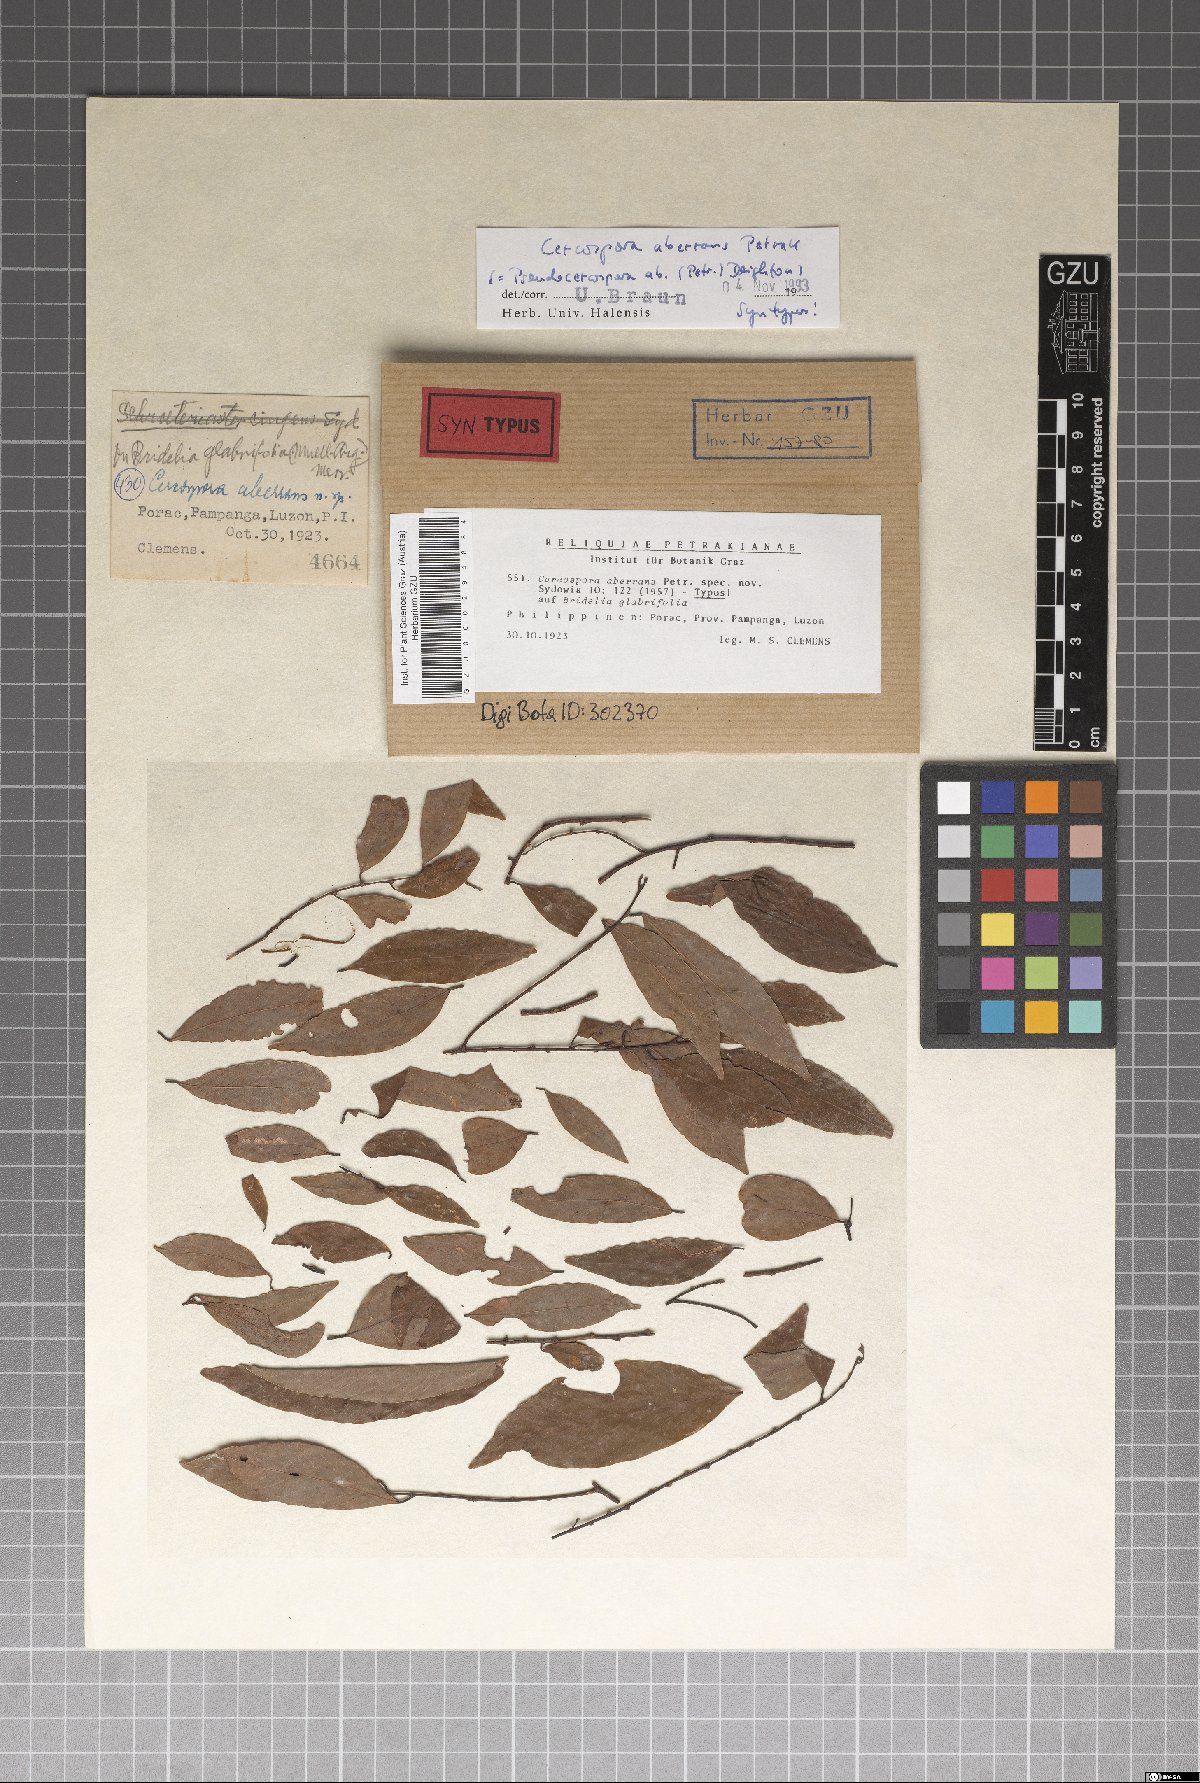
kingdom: Fungi
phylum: Ascomycota
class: Dothideomycetes
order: Mycosphaerellales
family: Mycosphaerellaceae
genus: Pseudocercospora
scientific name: Pseudocercospora aberrans
